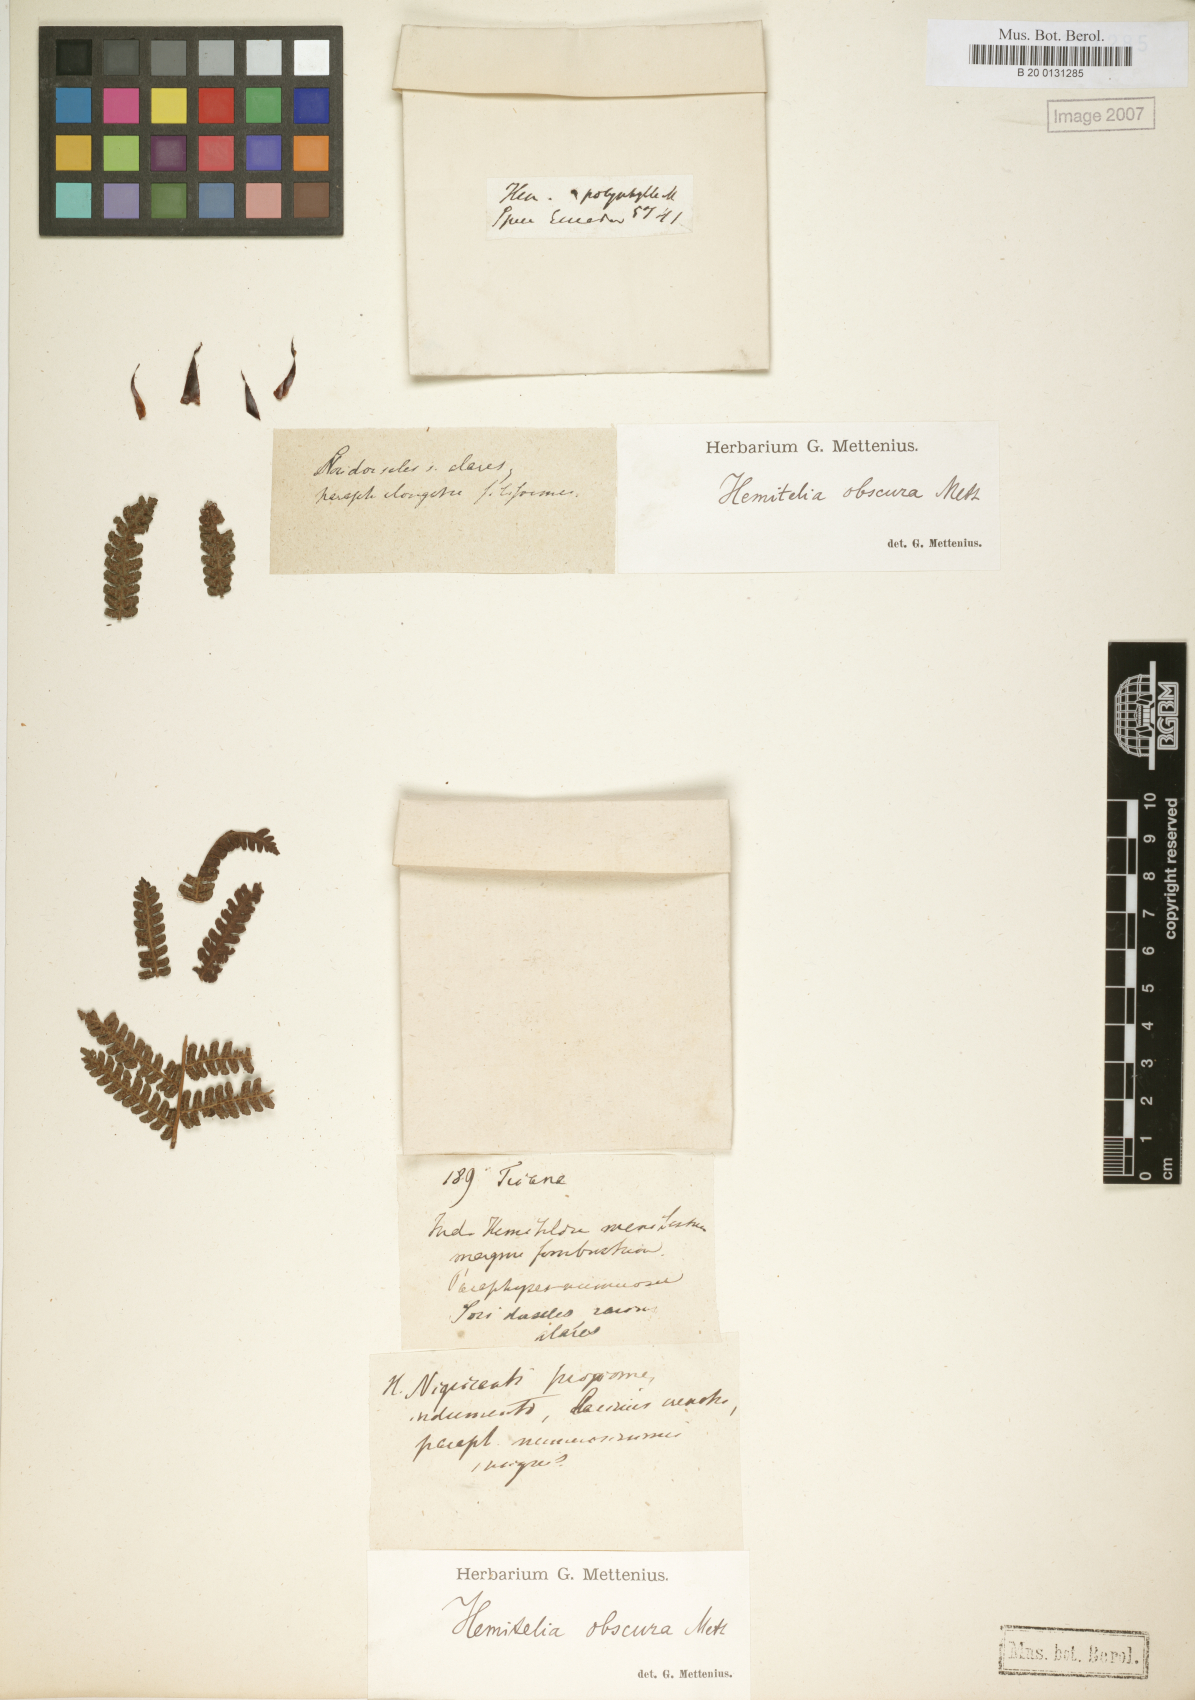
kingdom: Plantae
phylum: Tracheophyta
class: Polypodiopsida
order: Cyatheales
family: Cyatheaceae
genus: Cyathea
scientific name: Cyathea multiflora
